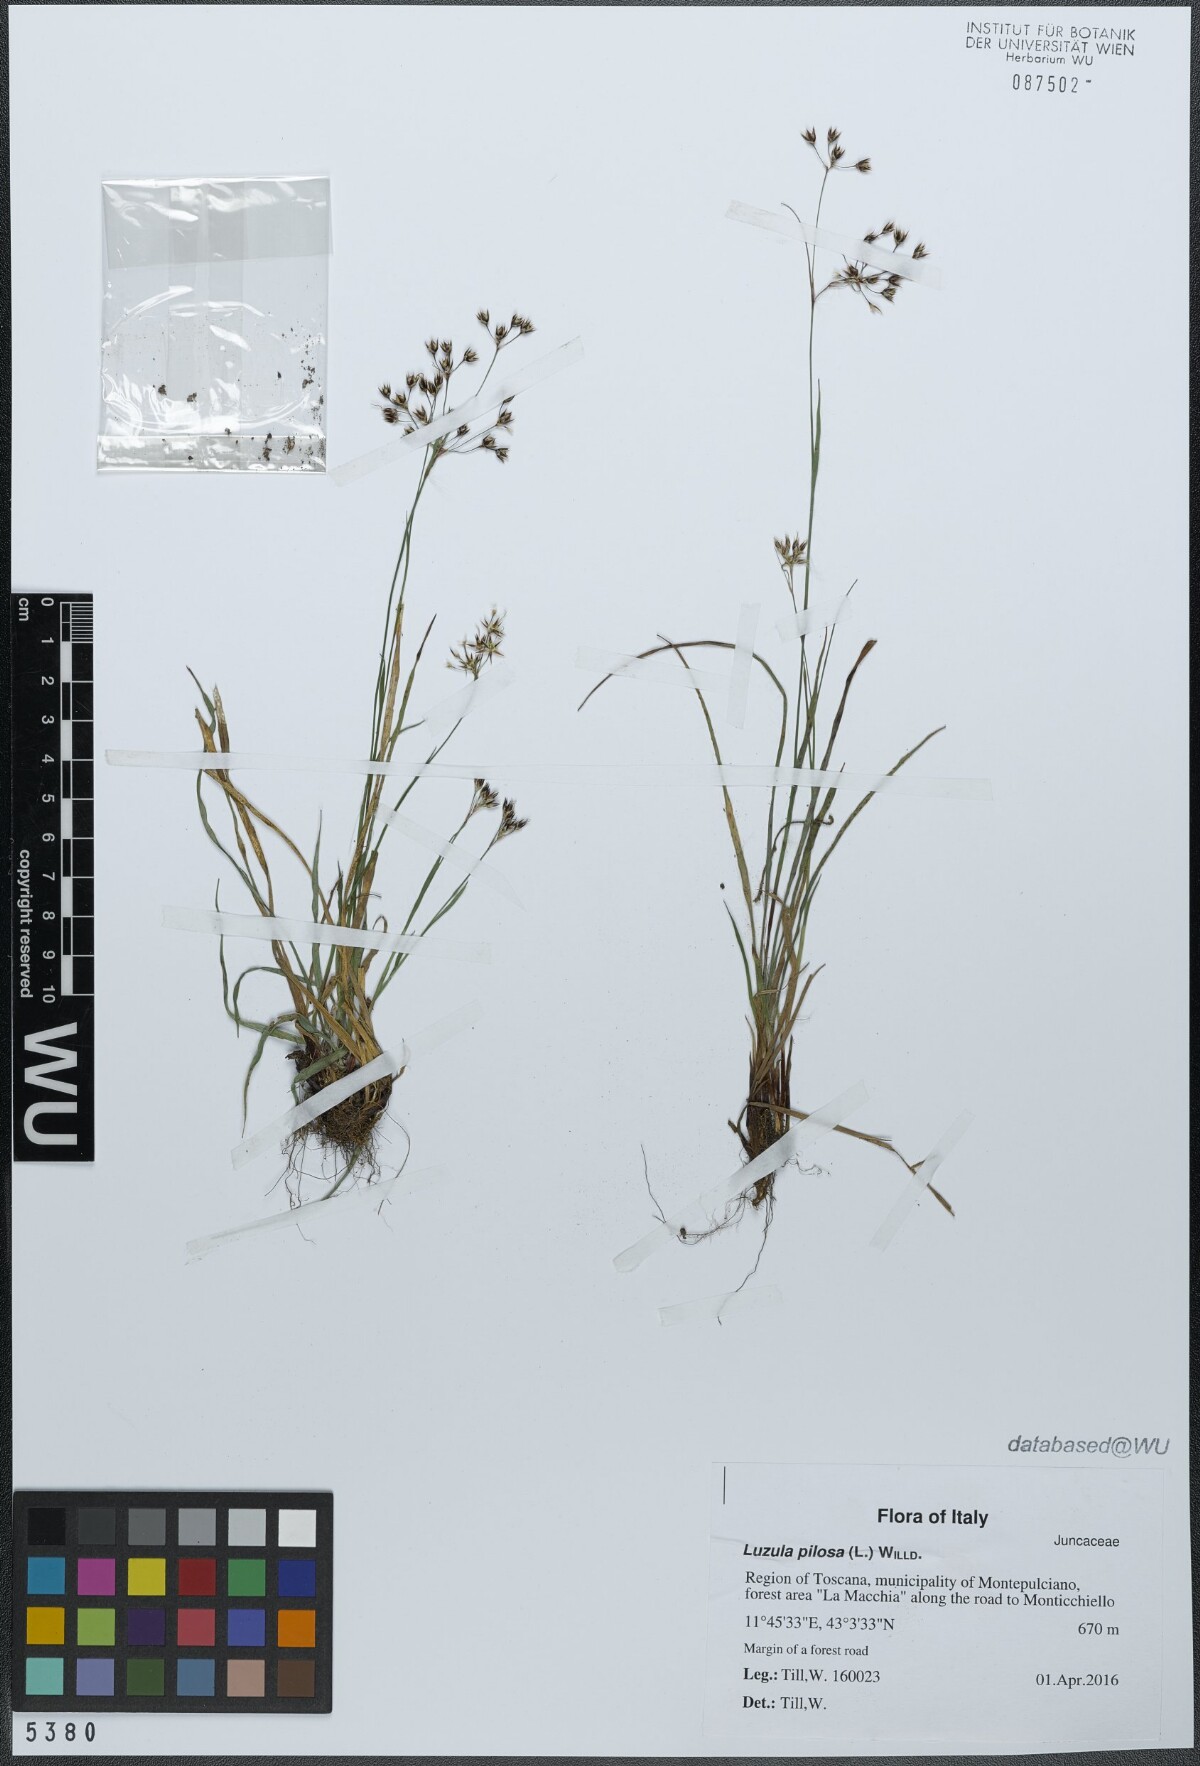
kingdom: Plantae
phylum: Tracheophyta
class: Liliopsida
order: Poales
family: Juncaceae
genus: Luzula
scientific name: Luzula pilosa
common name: Hairy wood-rush
